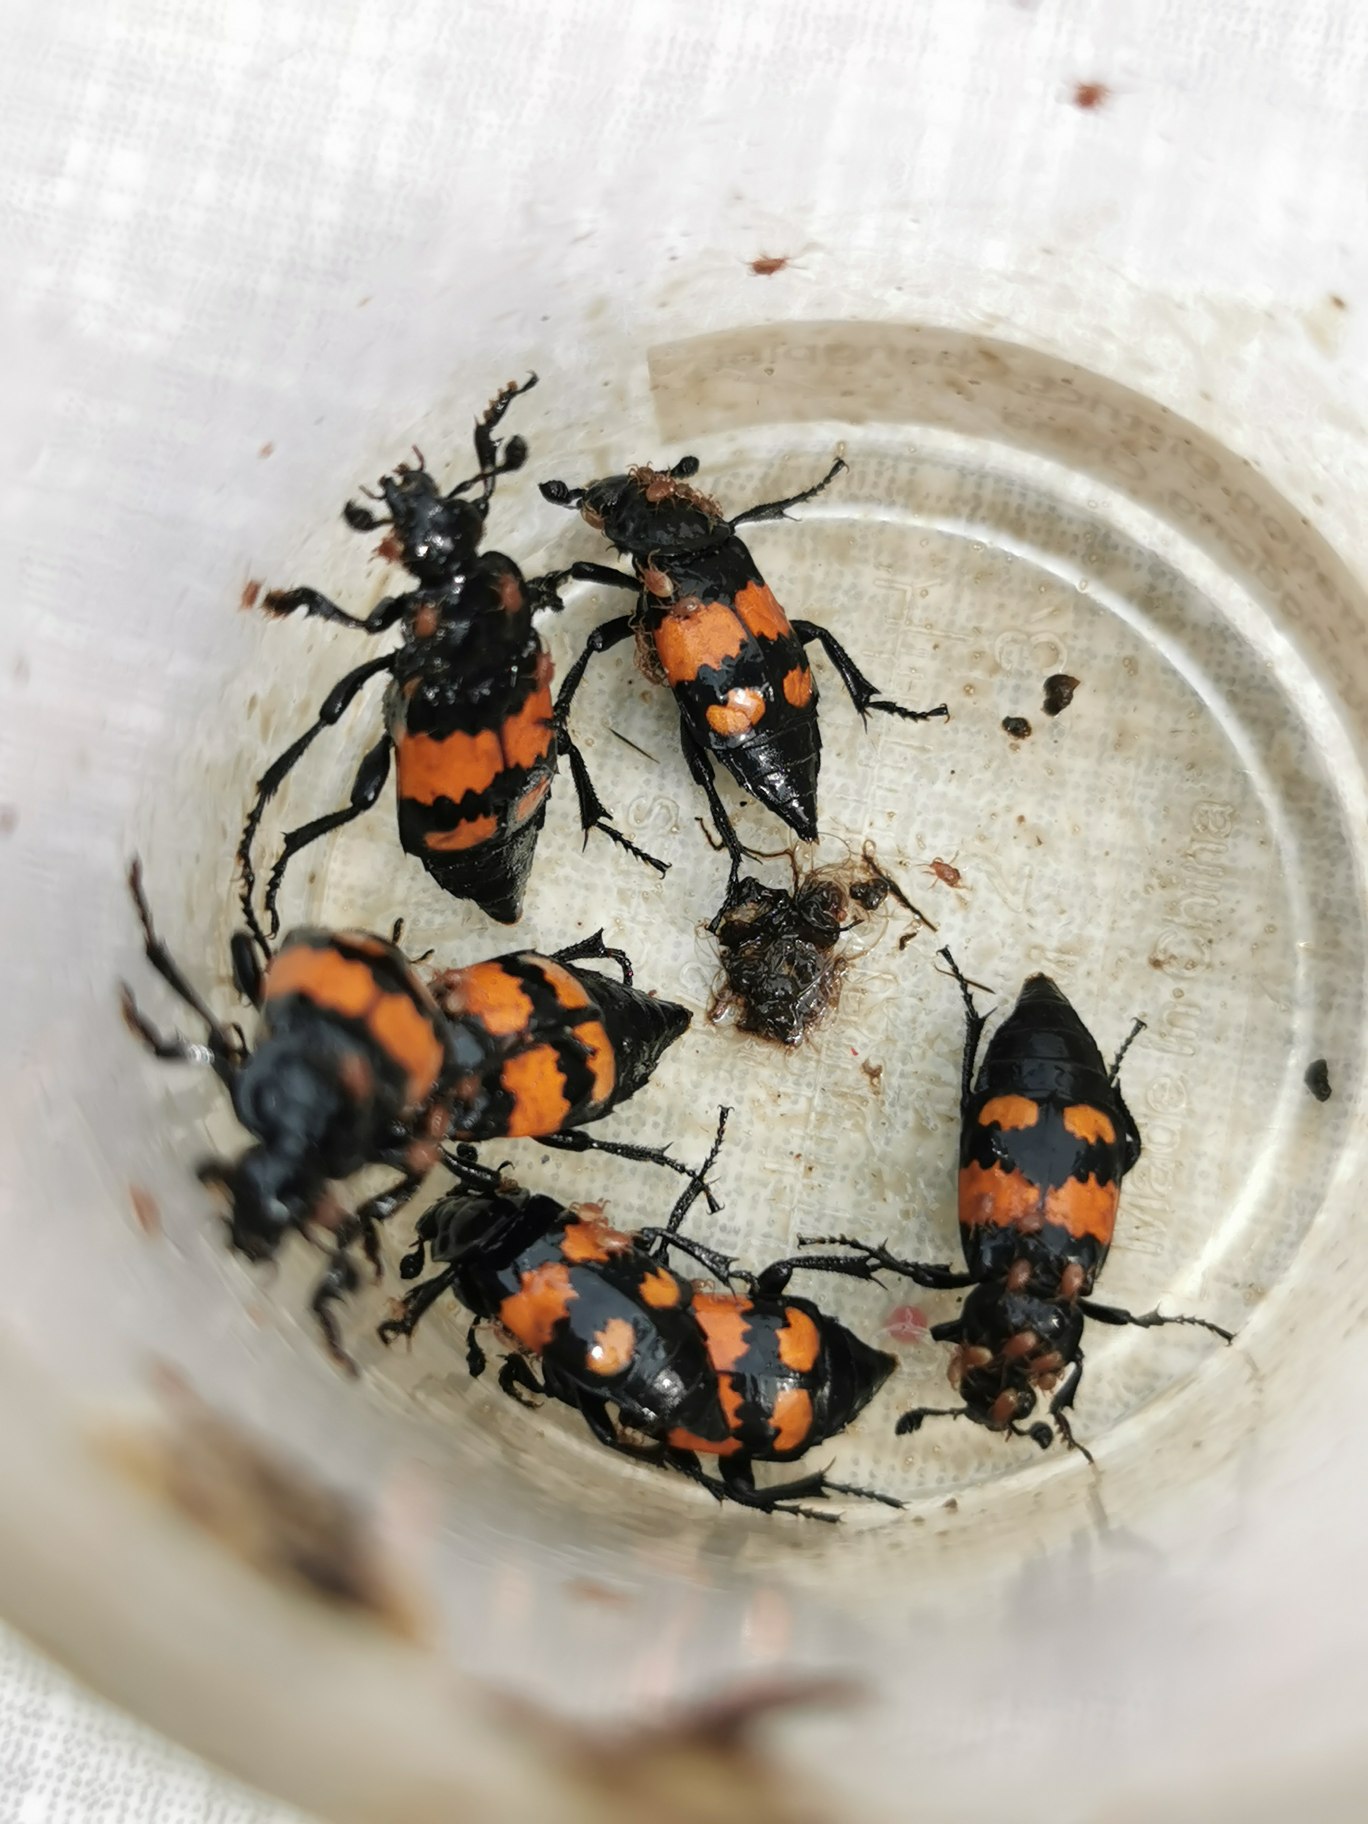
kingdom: Animalia
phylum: Arthropoda
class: Insecta
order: Coleoptera
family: Staphylinidae
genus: Nicrophorus
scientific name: Nicrophorus vespilloides
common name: Sortkøllet ådselgraver
